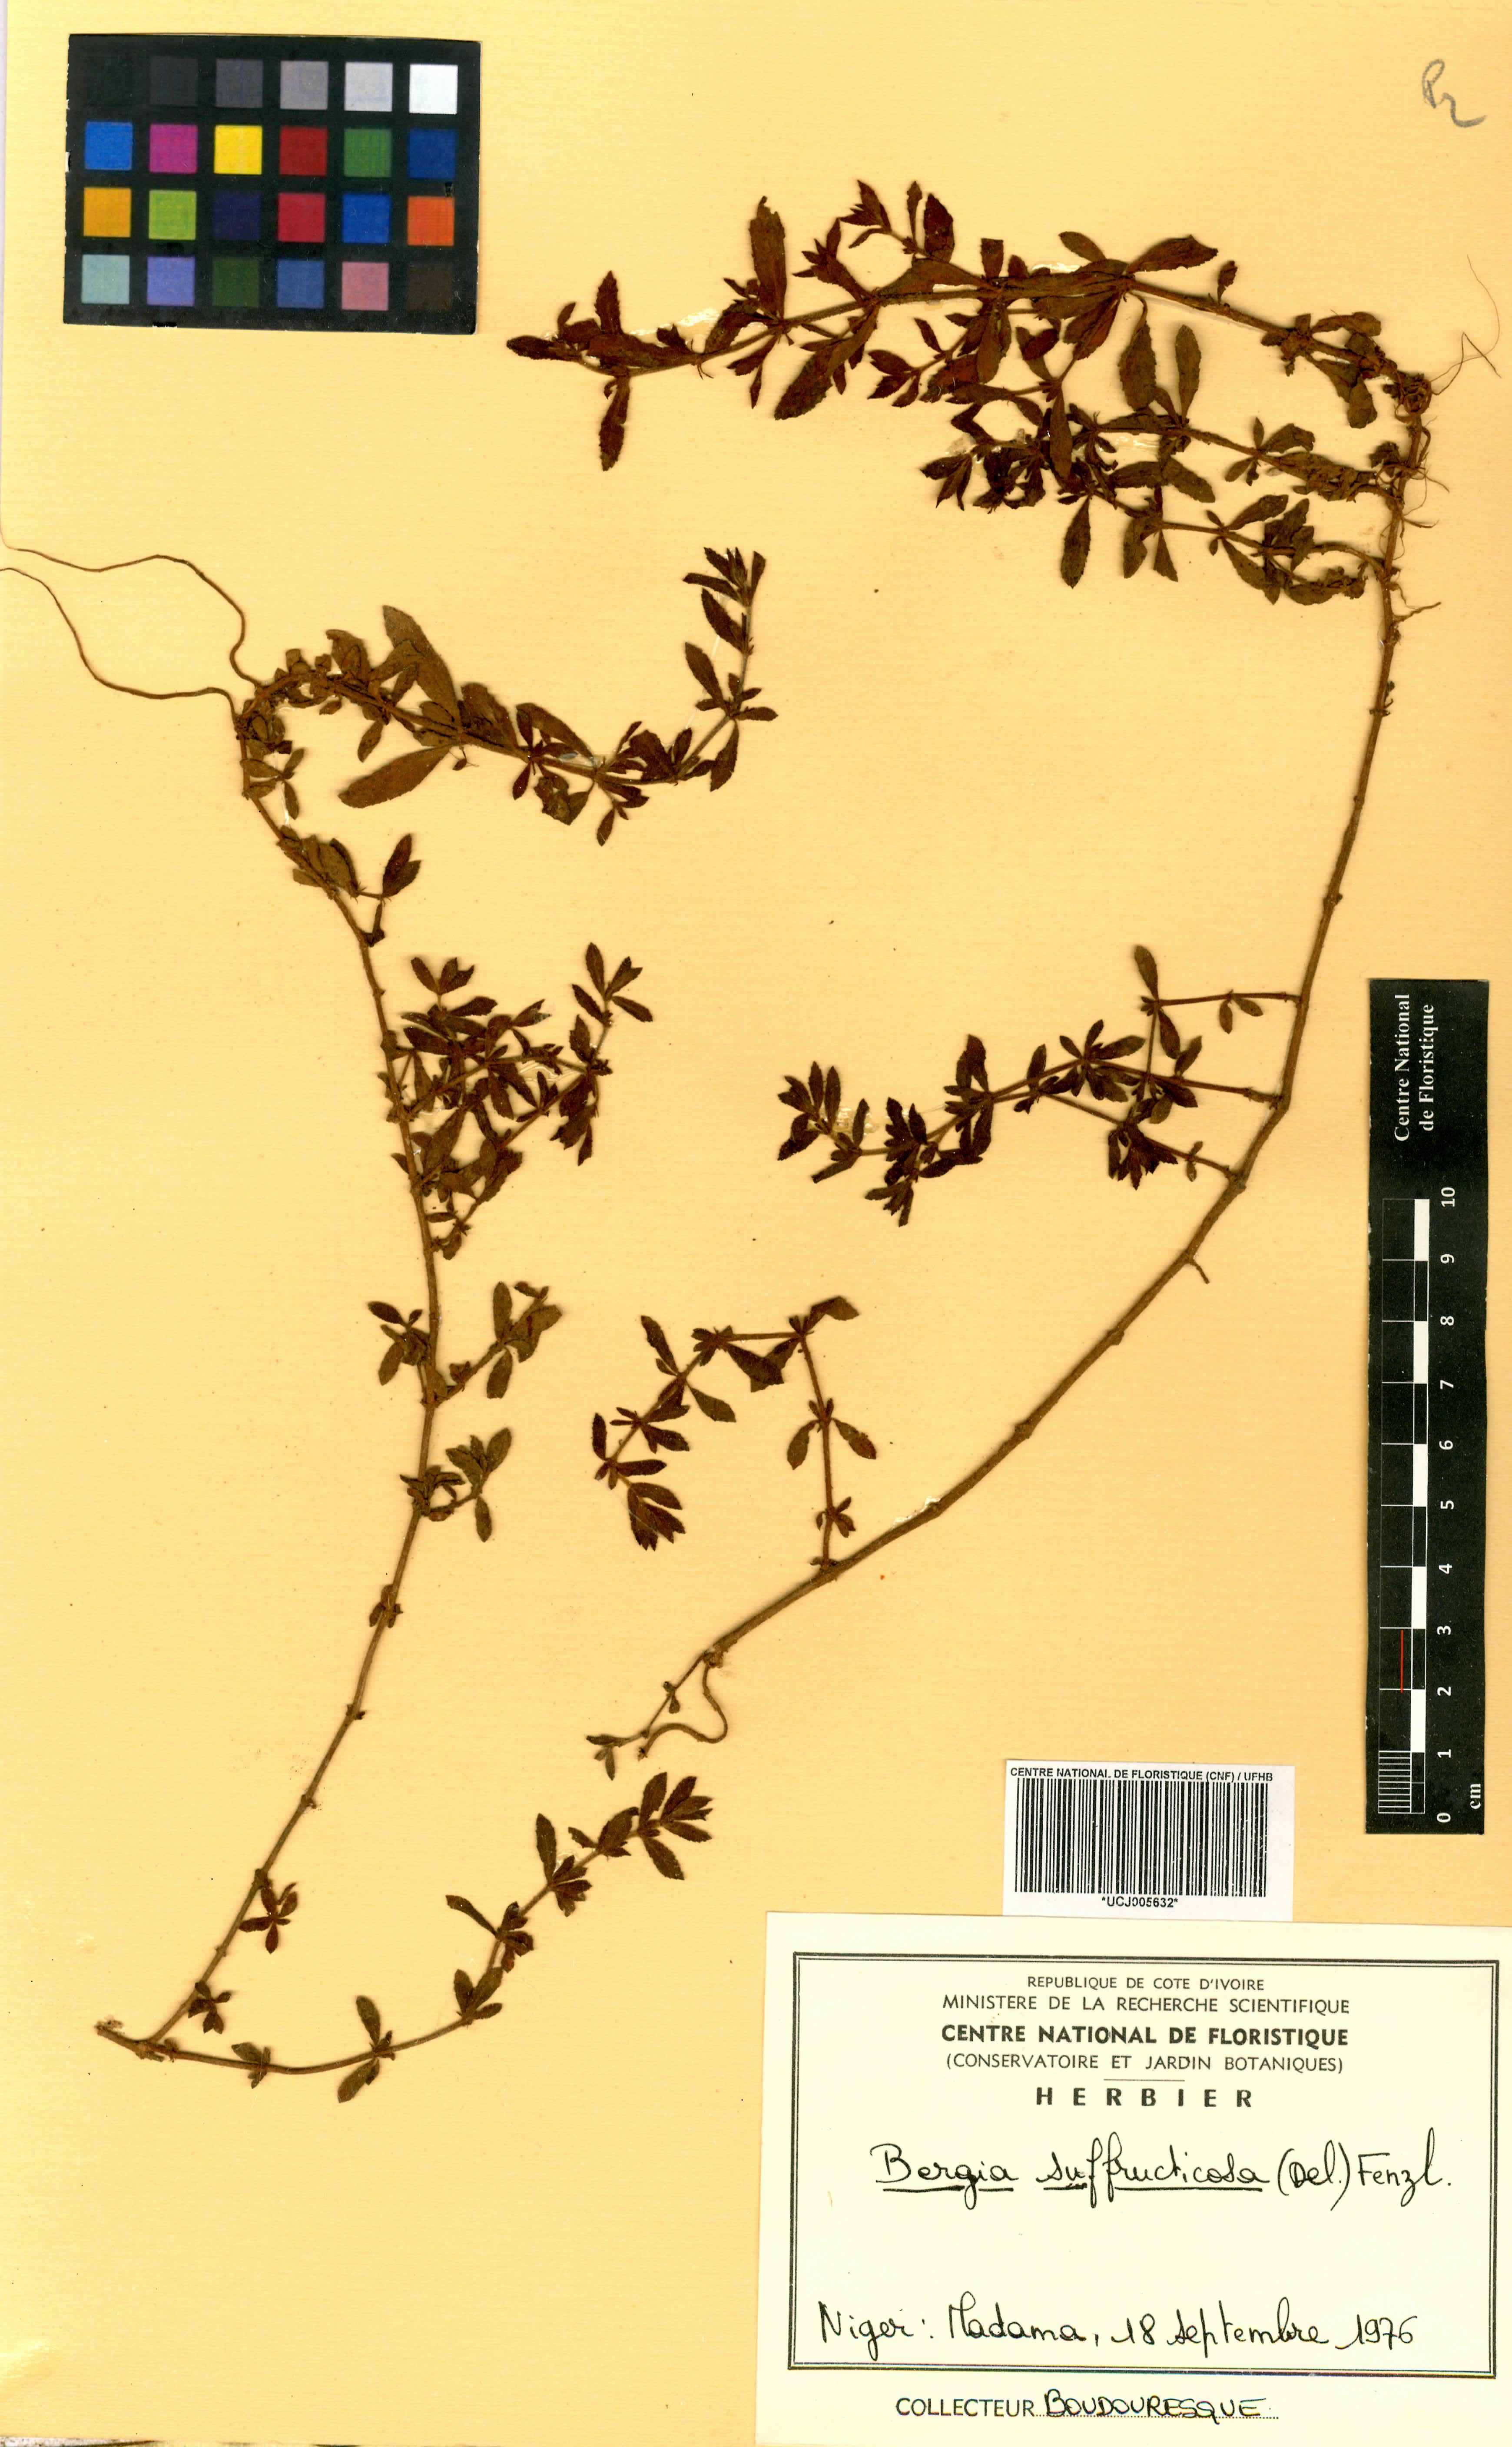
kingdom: Plantae
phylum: Tracheophyta
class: Magnoliopsida
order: Malpighiales
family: Elatinaceae
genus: Bergia
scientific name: Bergia suffruticosa
